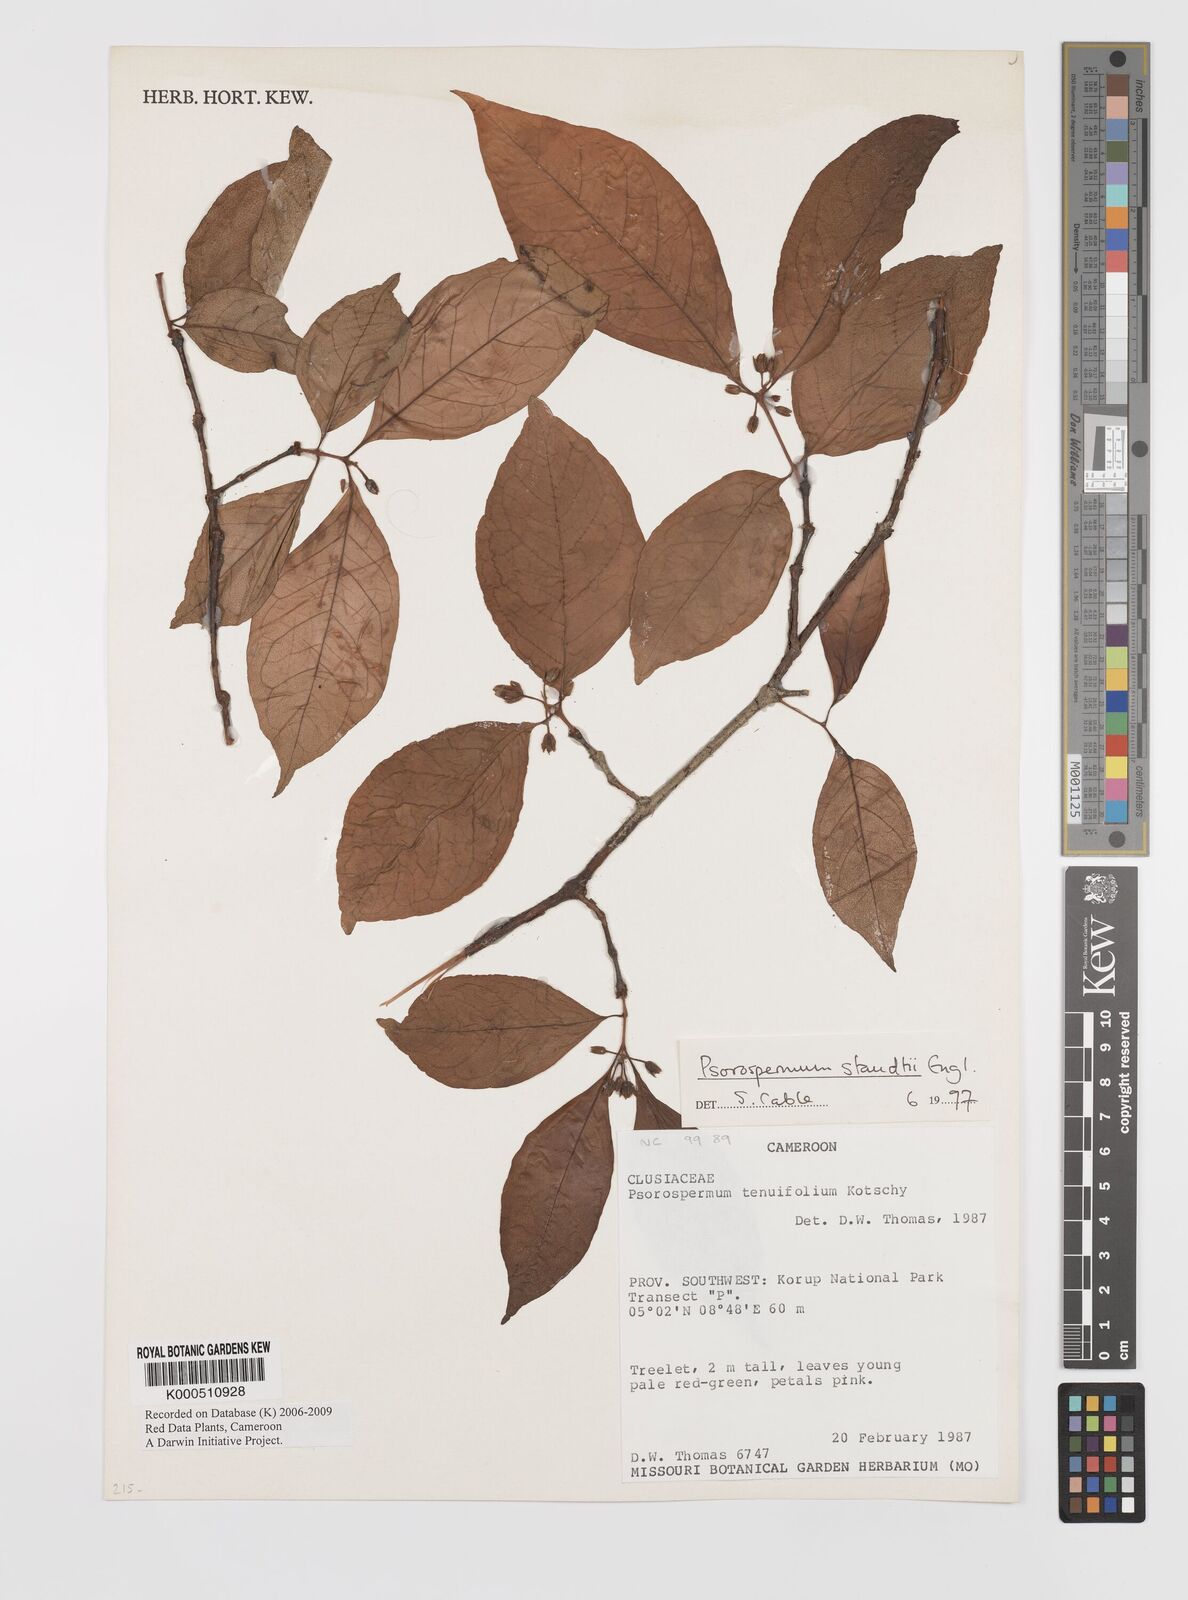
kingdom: Plantae
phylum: Tracheophyta
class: Magnoliopsida
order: Malpighiales
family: Hypericaceae
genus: Psorospermum
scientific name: Psorospermum staudtii
